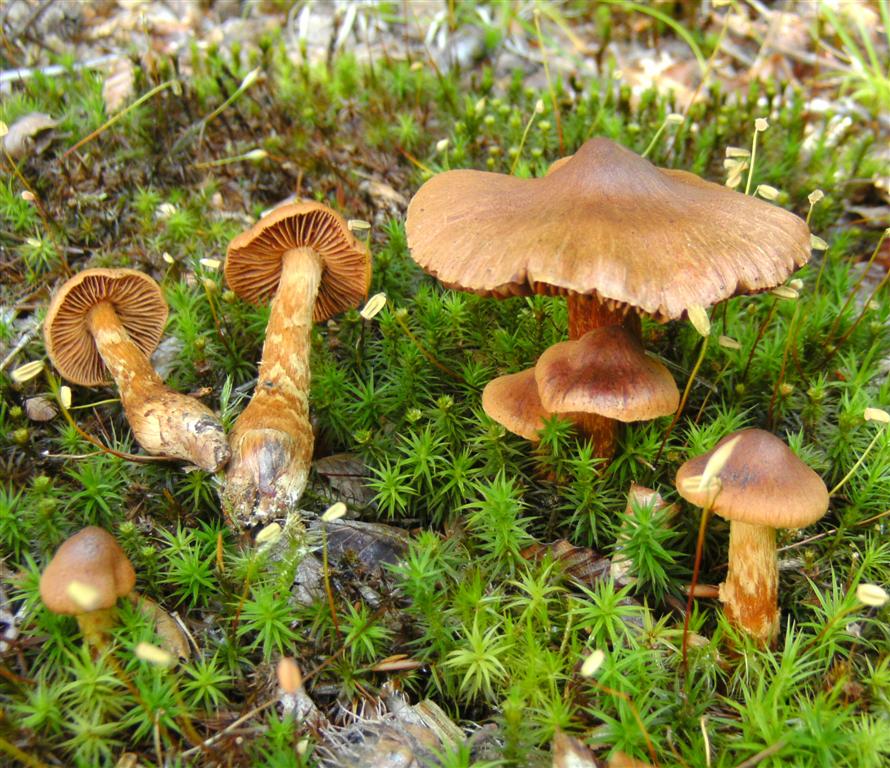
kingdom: Fungi
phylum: Basidiomycota
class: Agaricomycetes
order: Agaricales
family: Cortinariaceae
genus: Cortinarius
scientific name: Cortinarius rubellus
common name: puklet gift-slørhat
